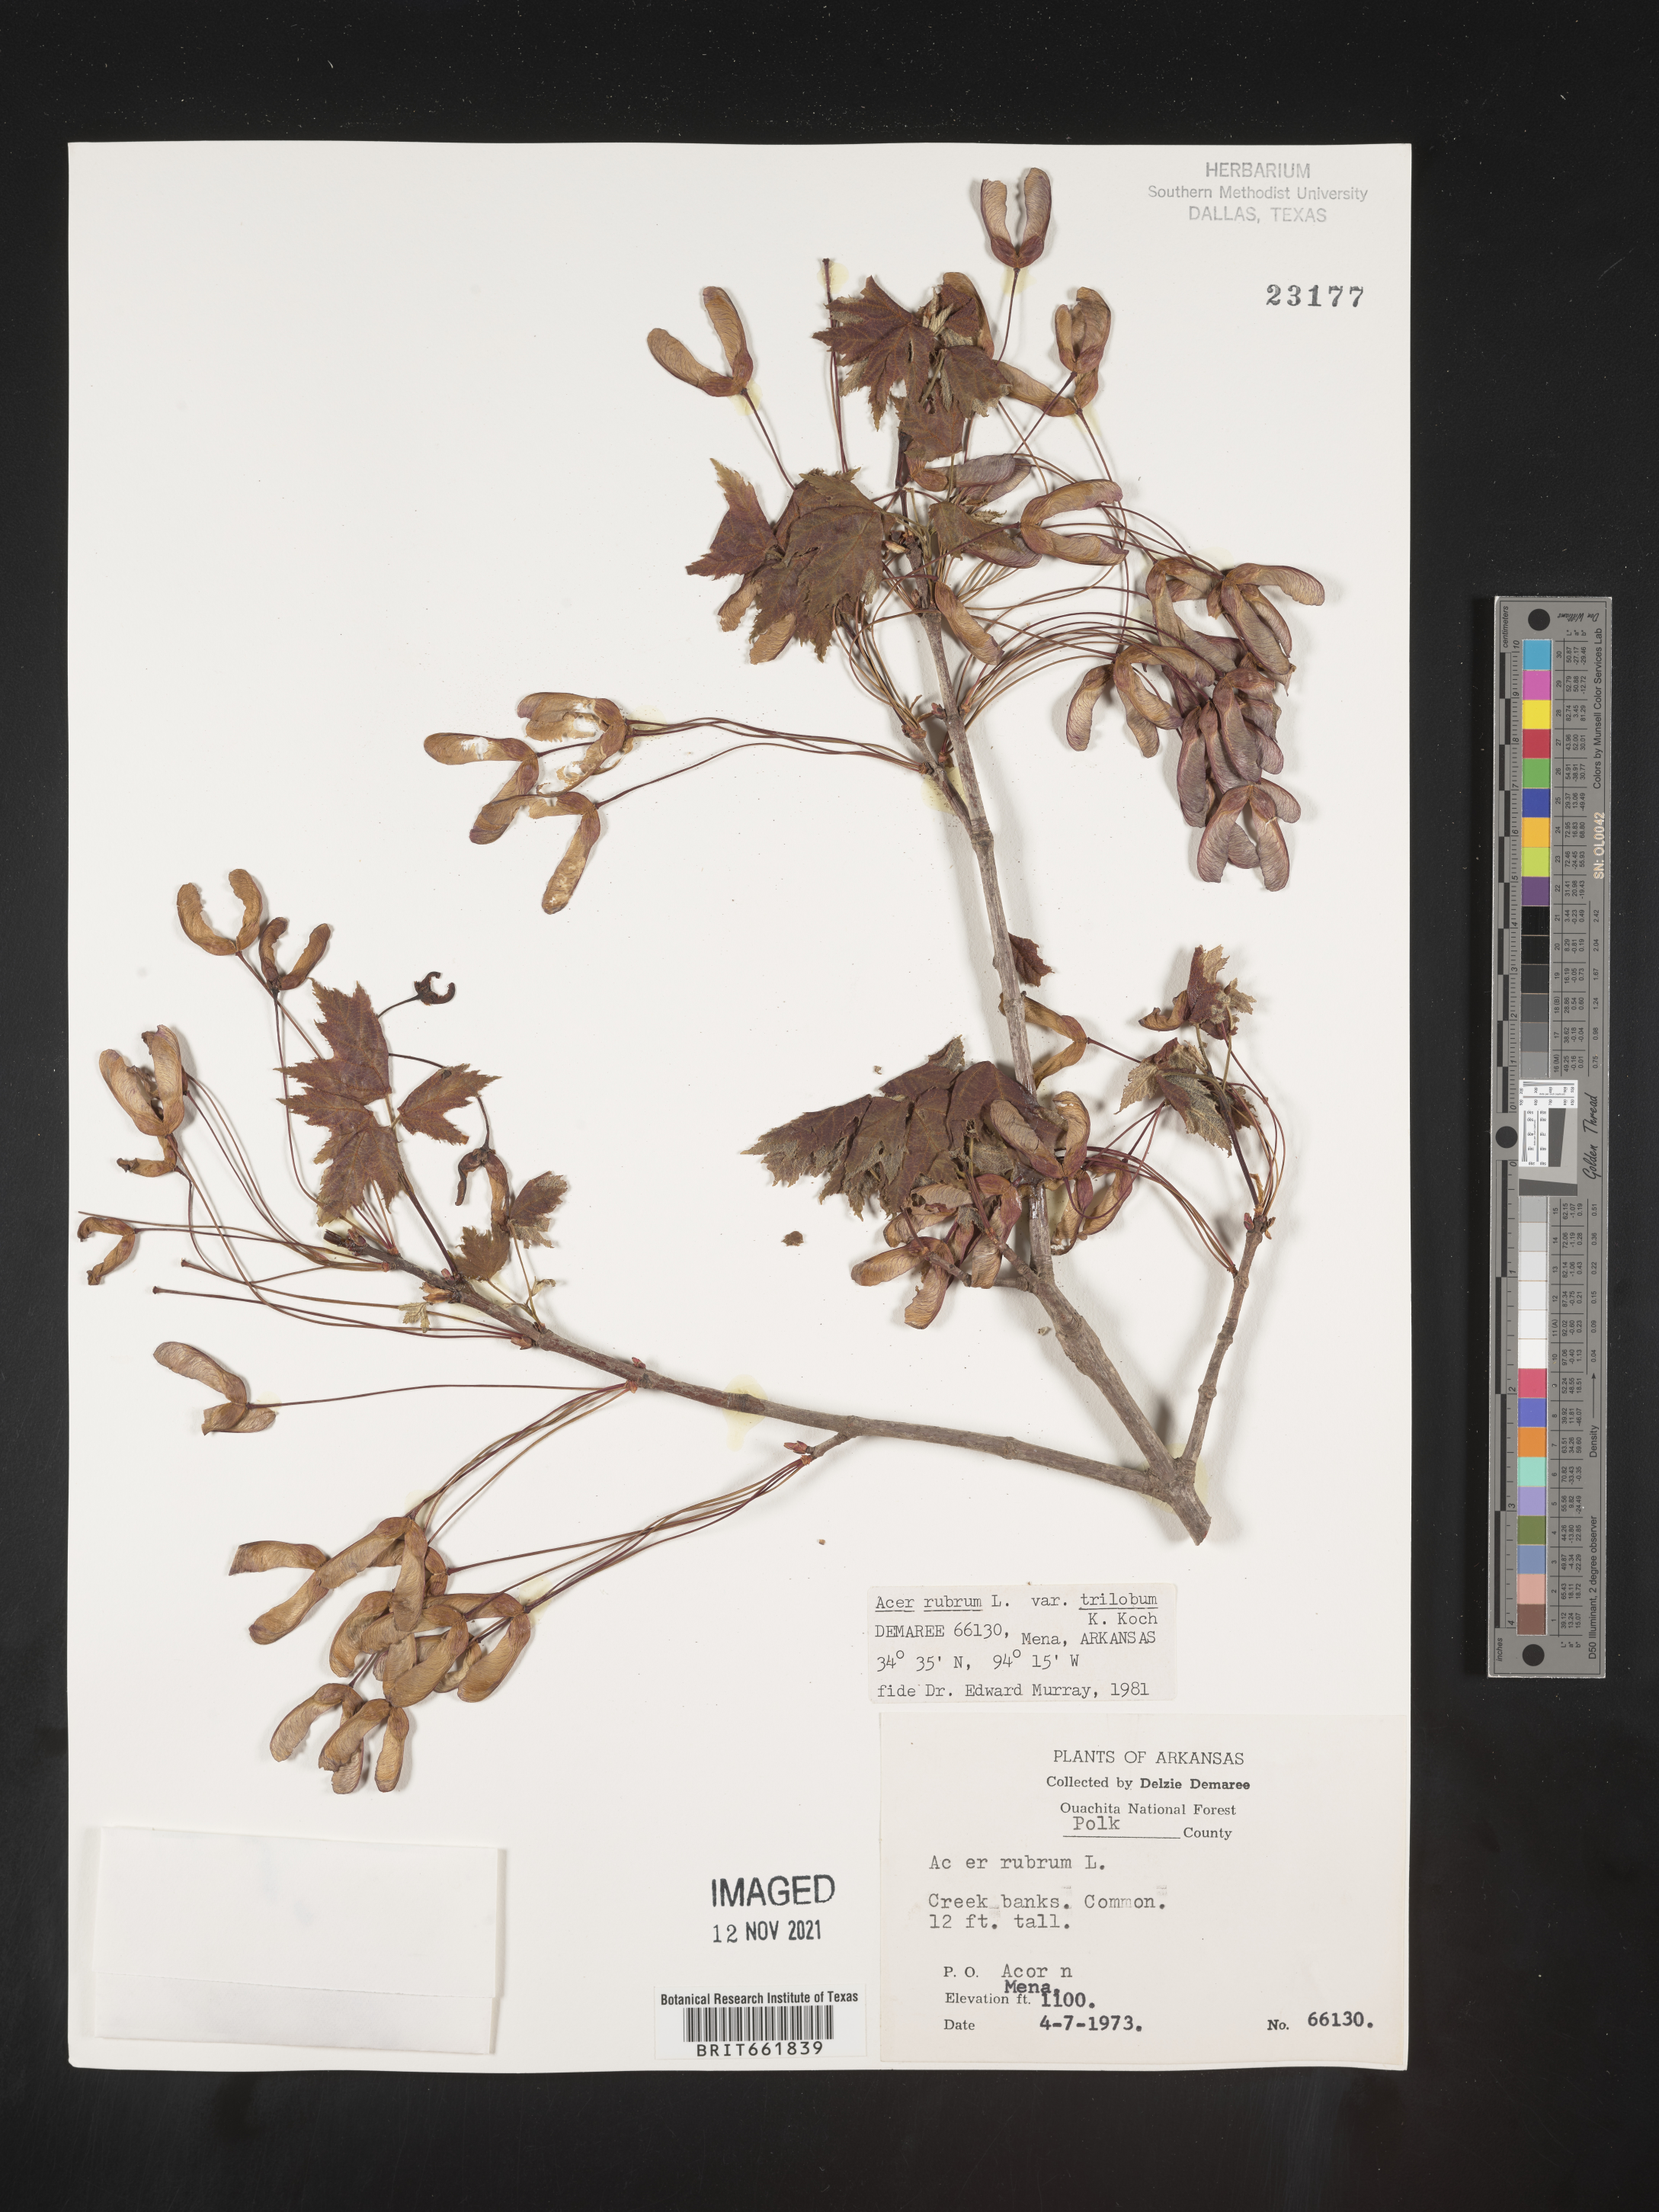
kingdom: Plantae
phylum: Tracheophyta
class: Magnoliopsida
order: Sapindales
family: Sapindaceae
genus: Acer
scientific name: Acer rubrum
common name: Red maple
